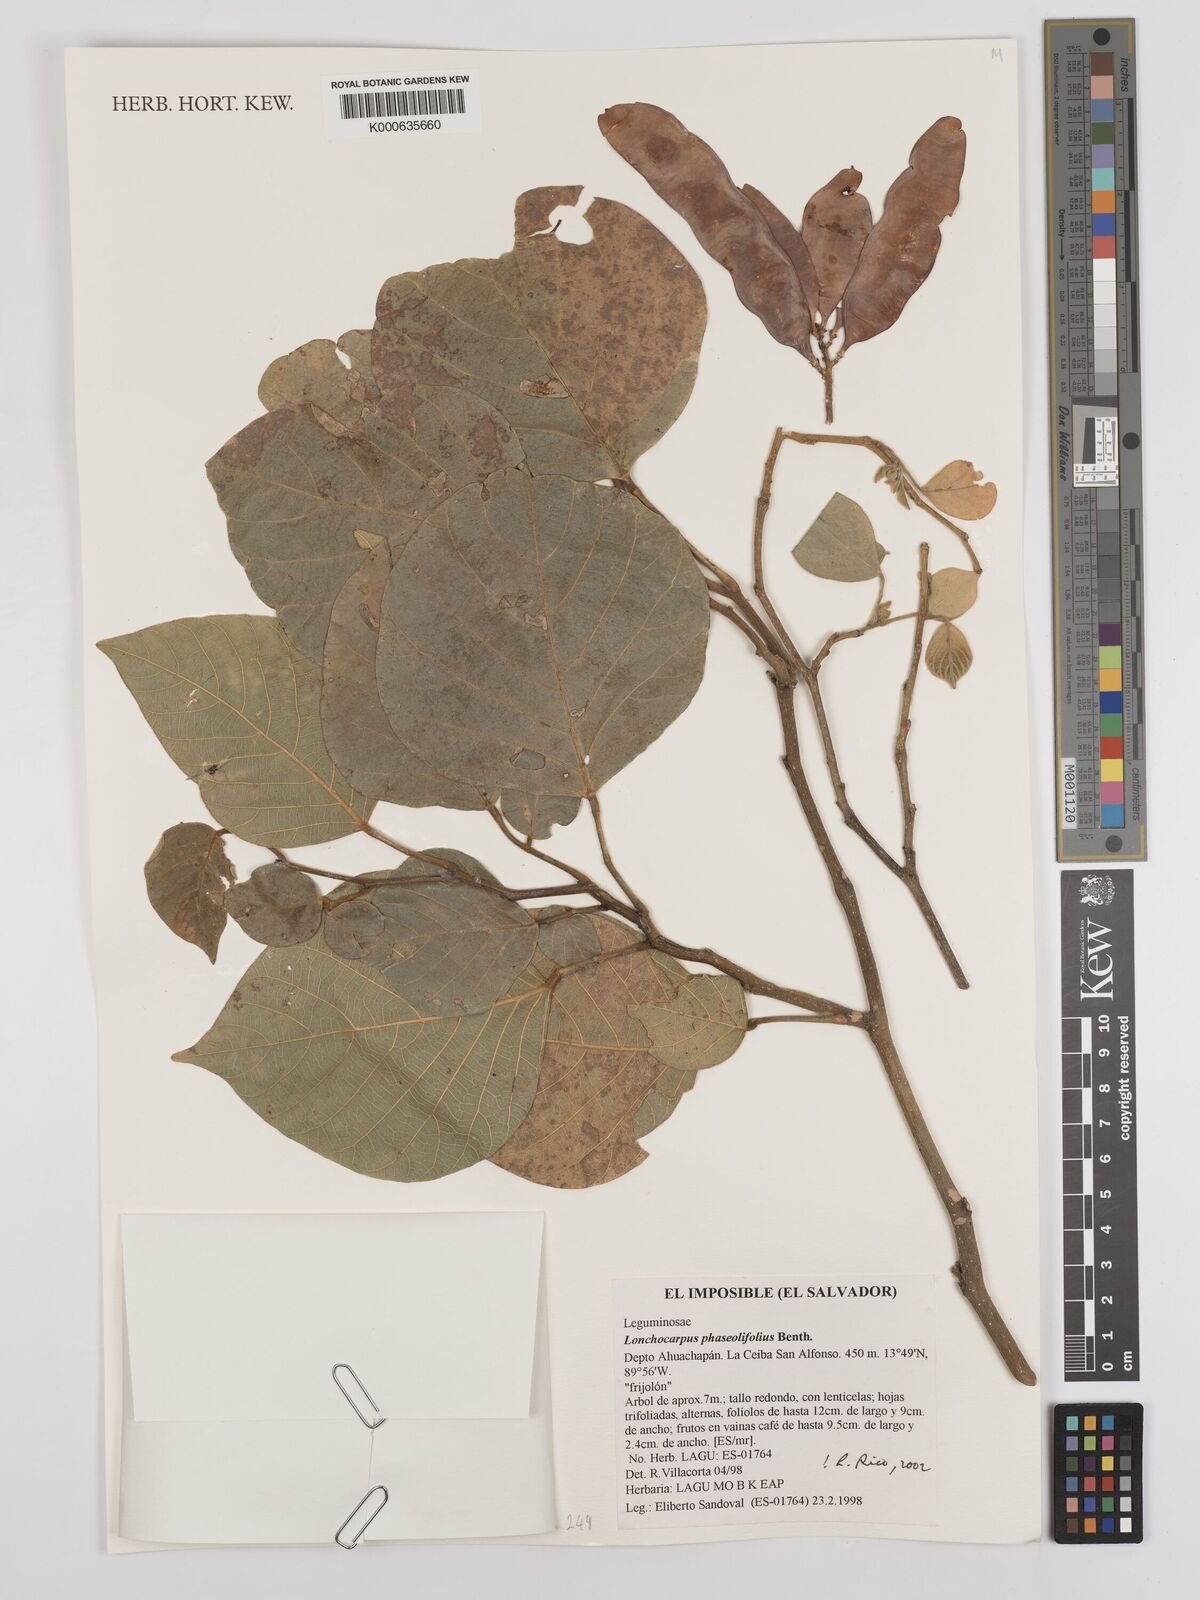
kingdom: Plantae
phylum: Tracheophyta
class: Magnoliopsida
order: Fabales
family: Fabaceae
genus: Lonchocarpus
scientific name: Lonchocarpus phaseolifolius
